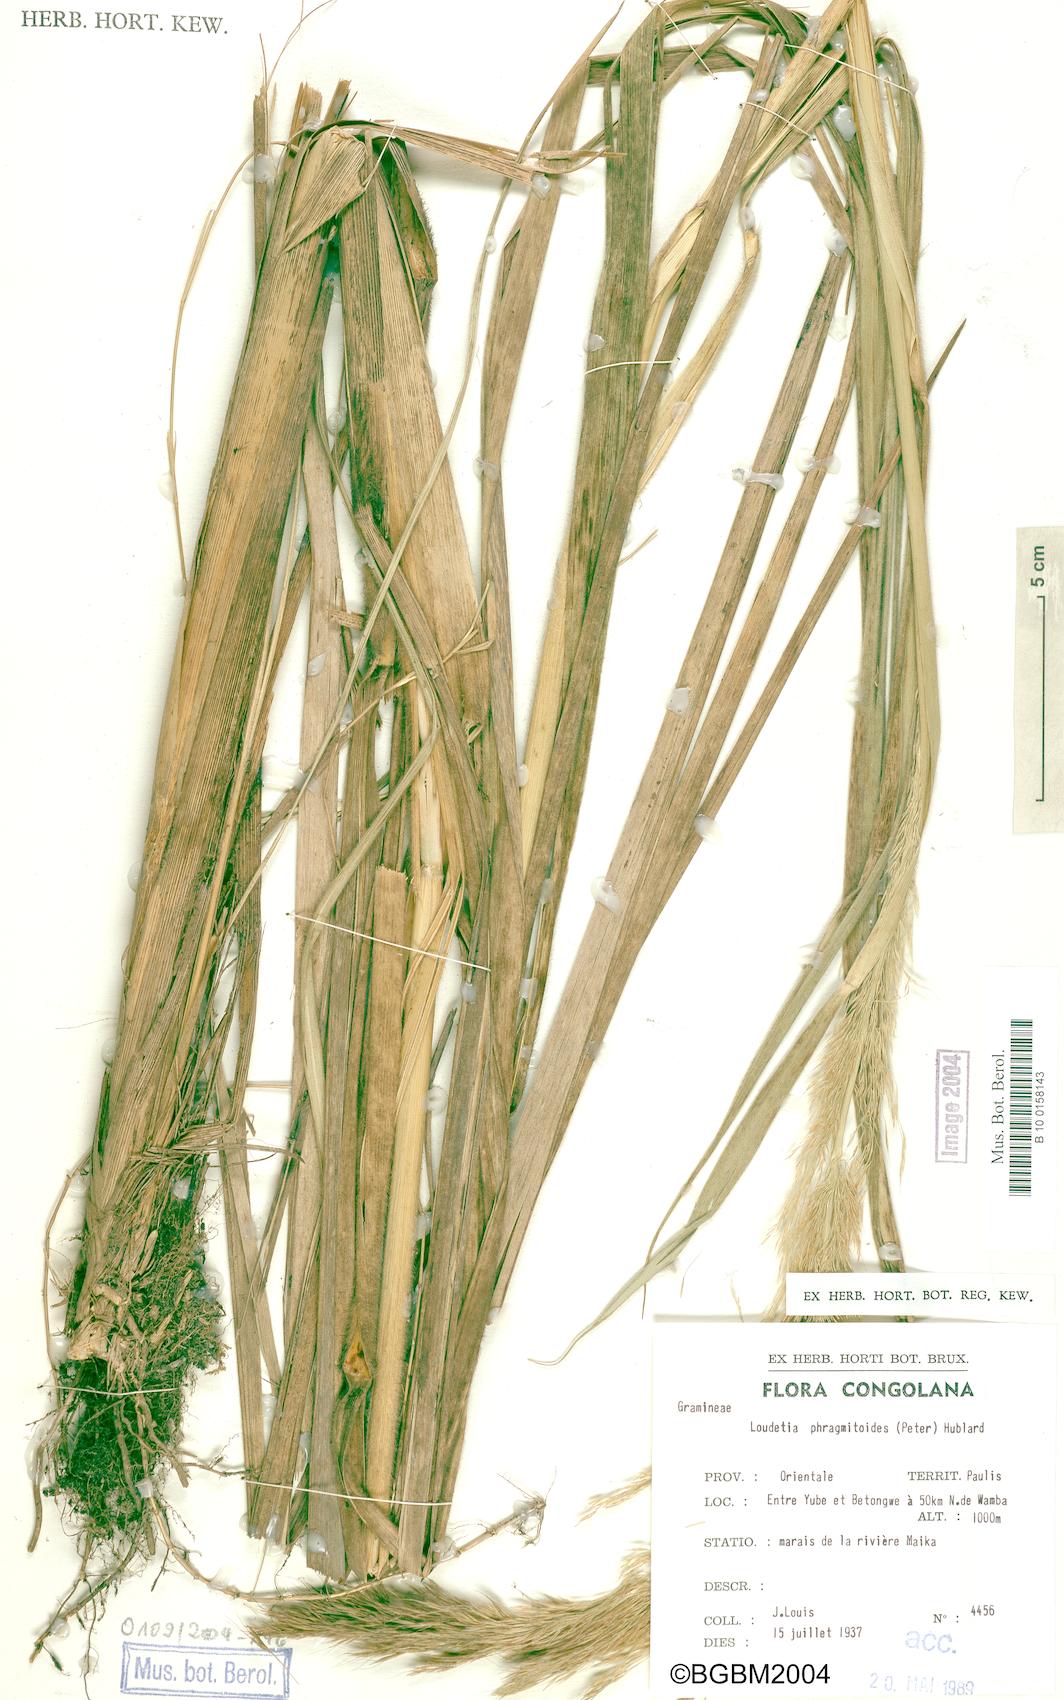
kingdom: Plantae
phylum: Tracheophyta
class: Liliopsida
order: Poales
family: Poaceae
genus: Loudetia
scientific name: Loudetia phragmitoides
